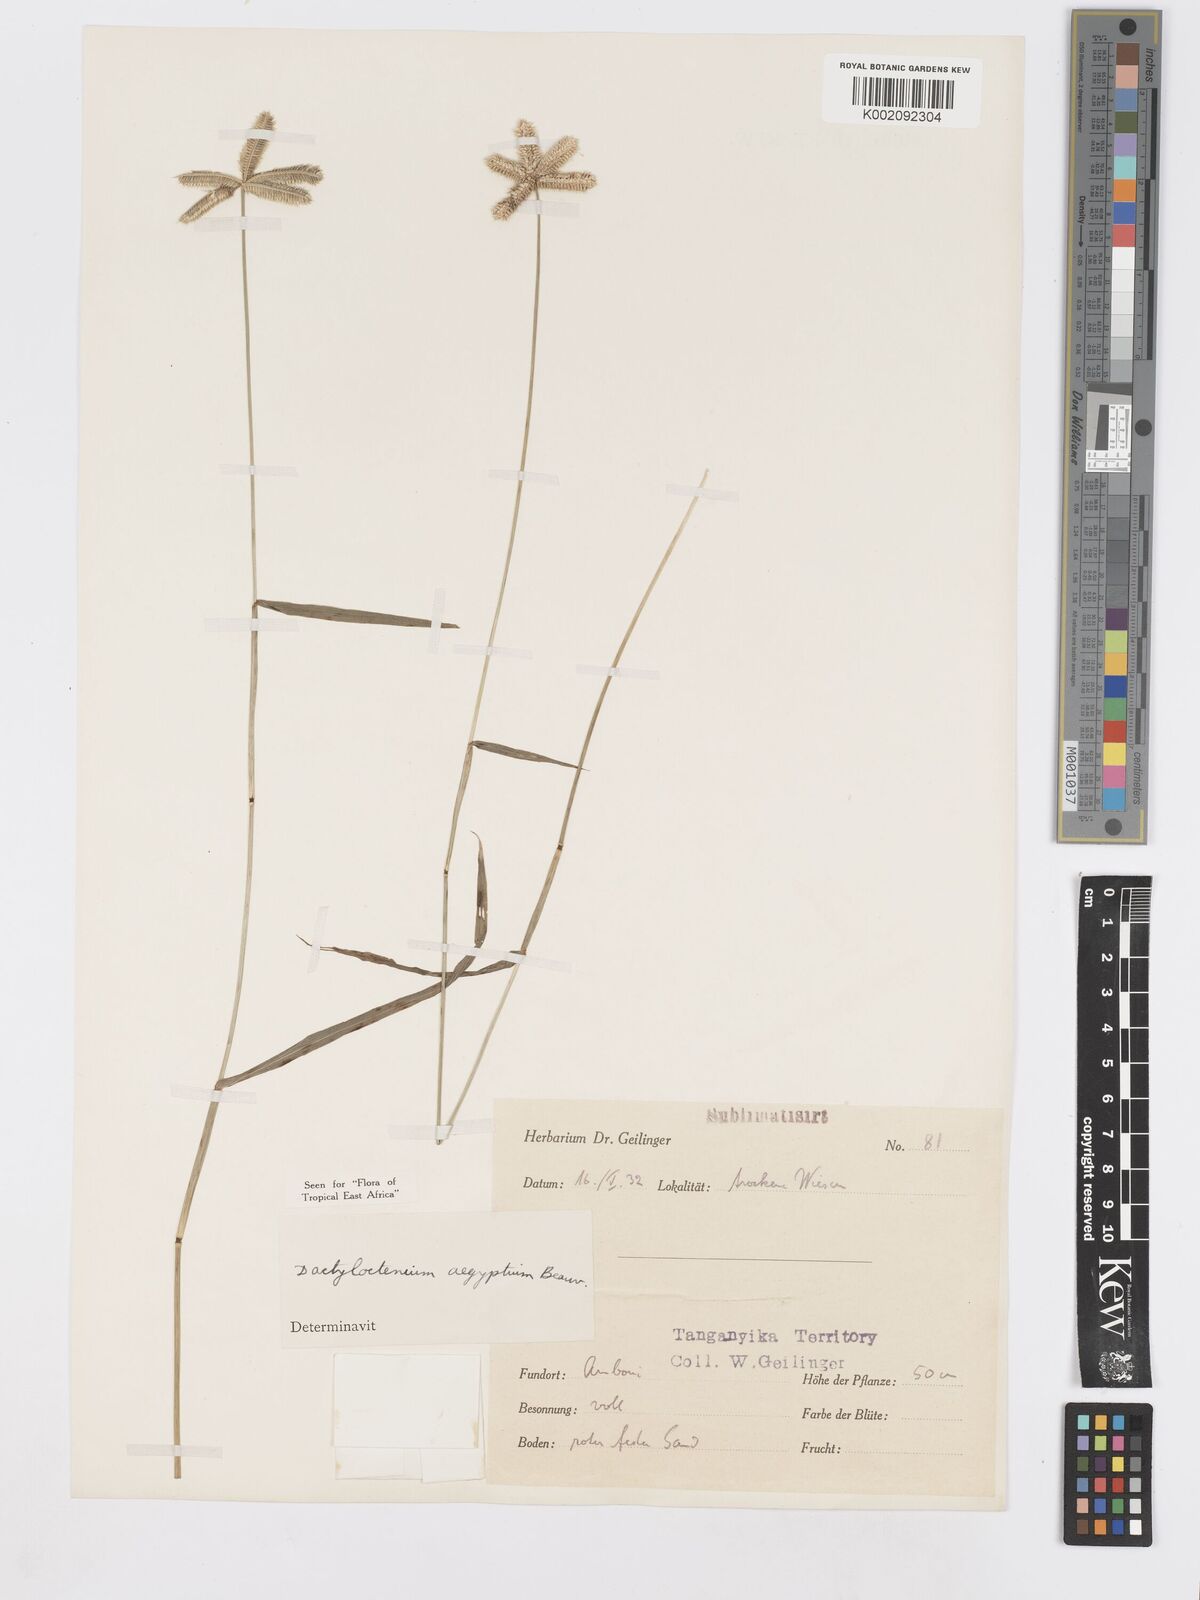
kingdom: Plantae
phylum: Tracheophyta
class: Liliopsida
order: Poales
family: Poaceae
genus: Dactyloctenium
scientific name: Dactyloctenium aegyptium
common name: Egyptian grass
